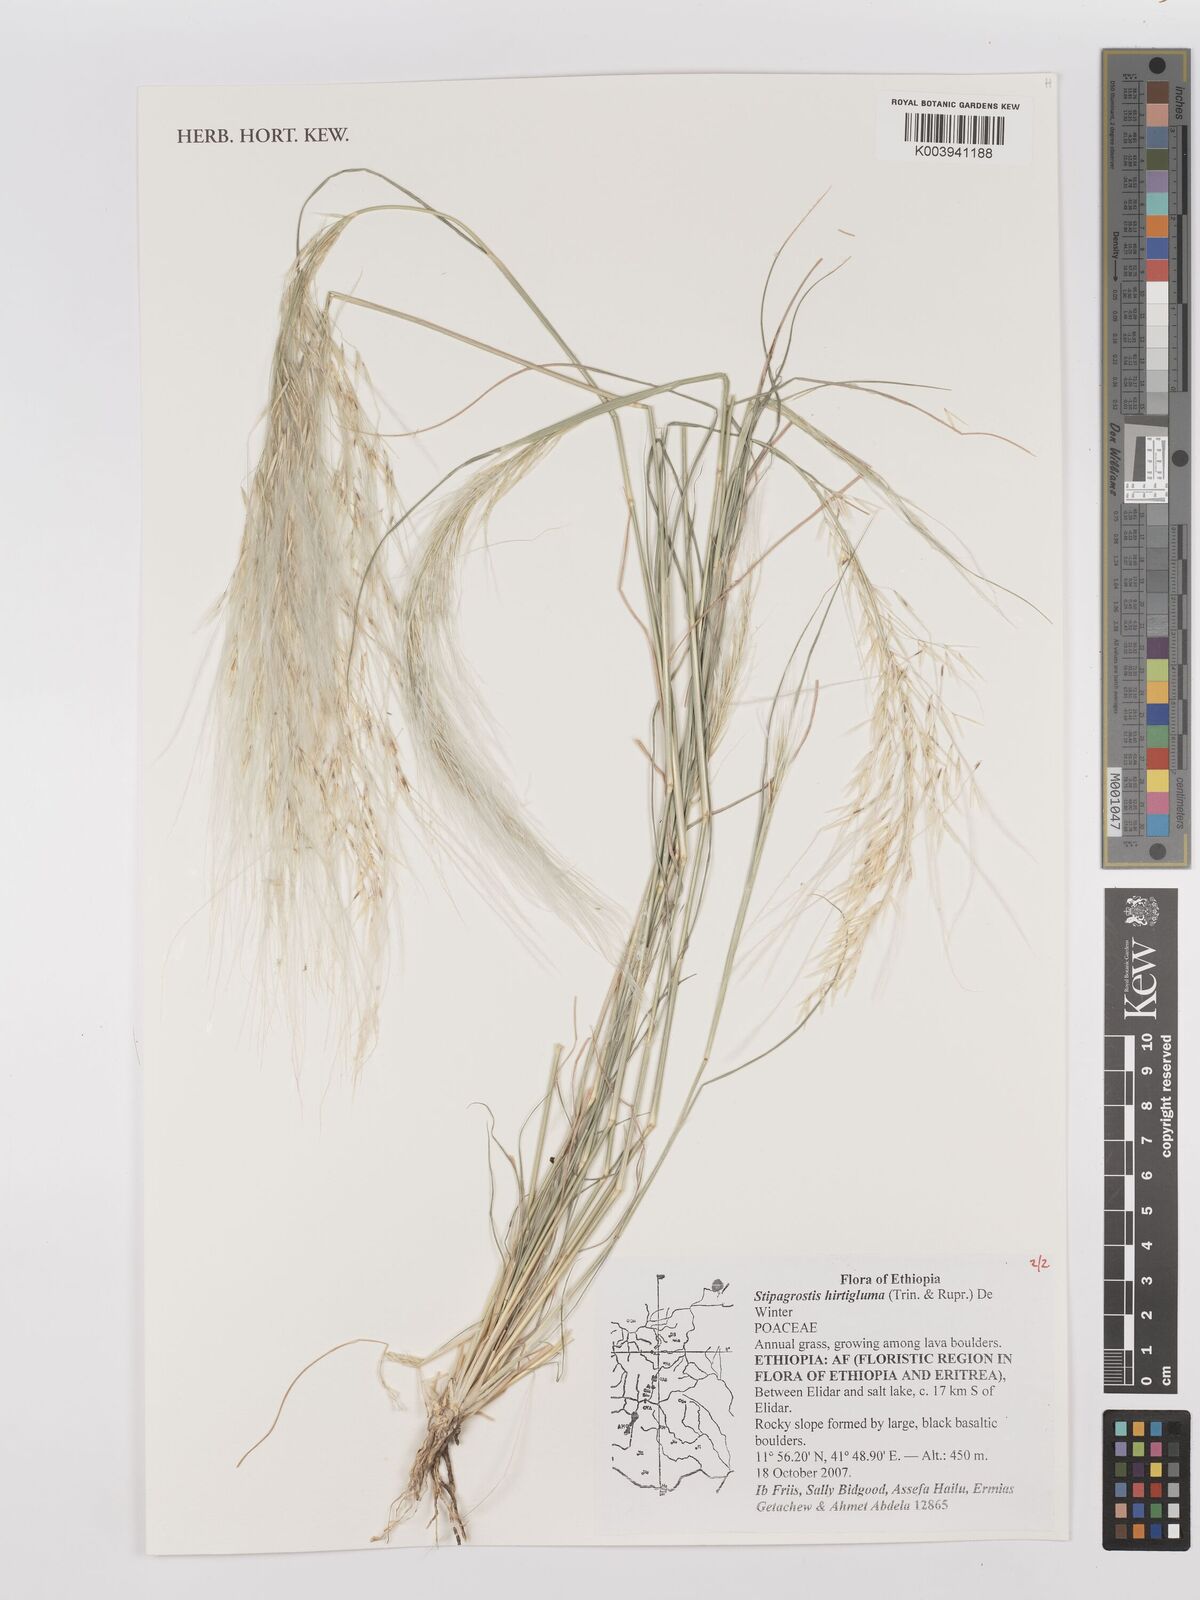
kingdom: Plantae
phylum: Tracheophyta
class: Liliopsida
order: Poales
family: Poaceae
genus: Stipagrostis
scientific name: Stipagrostis hirtigluma
